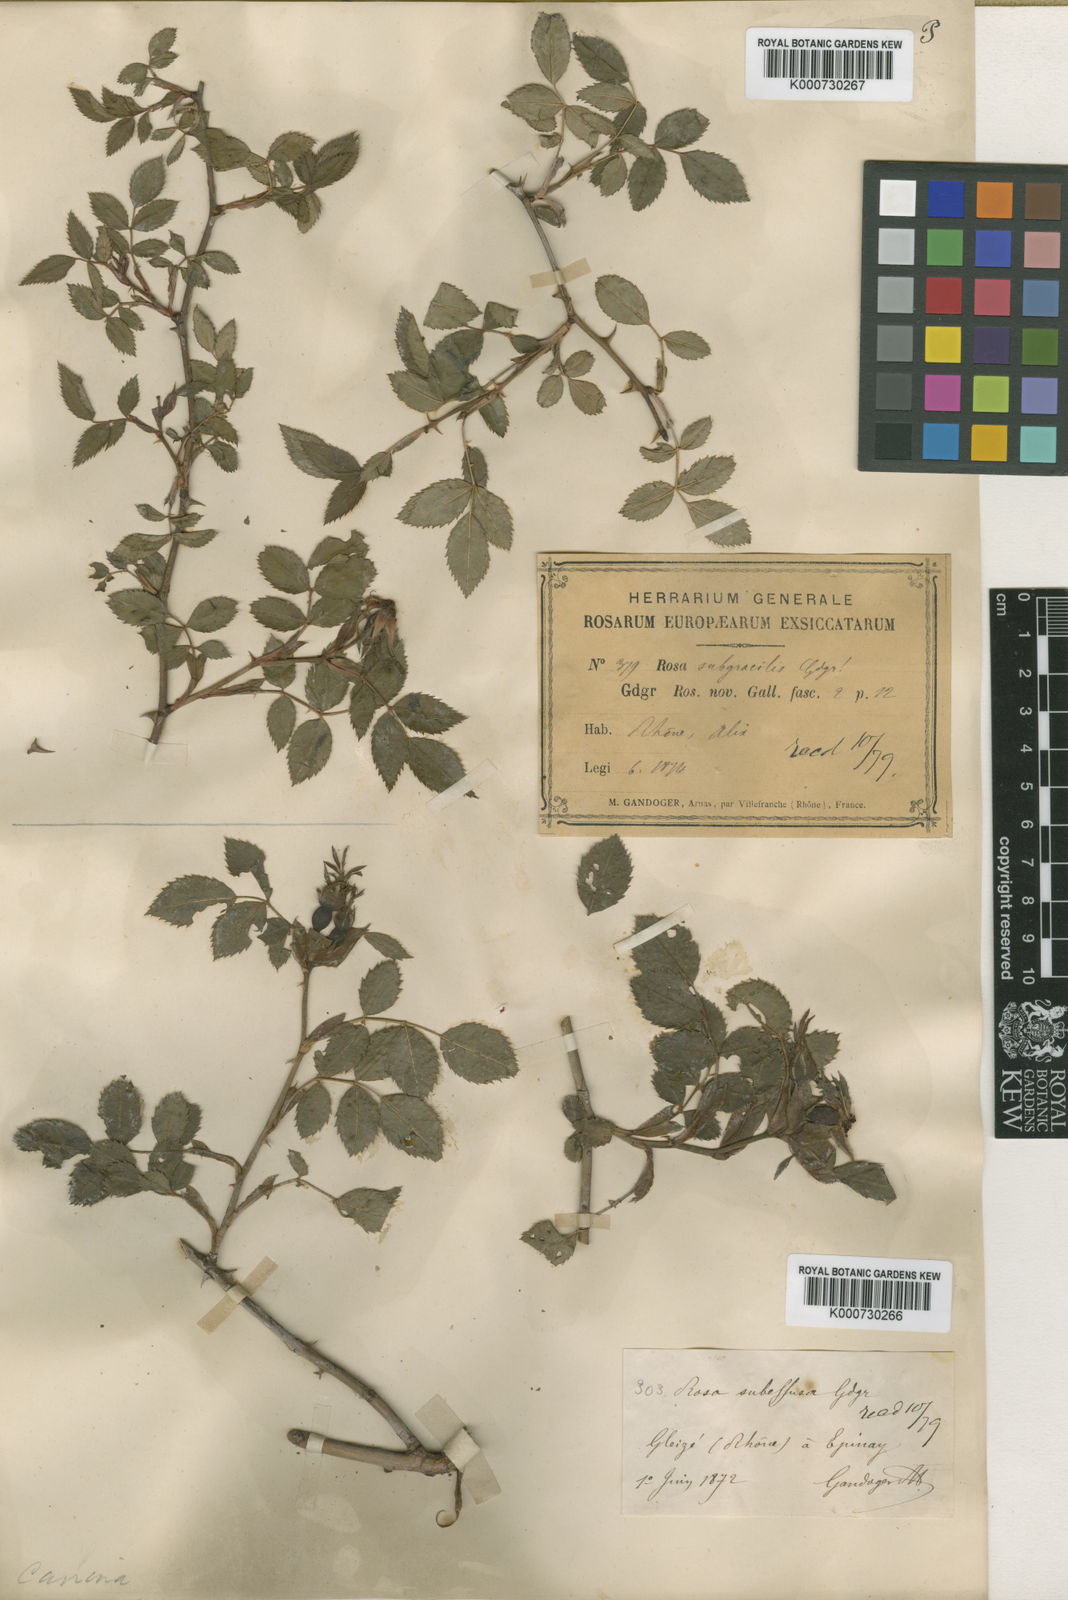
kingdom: Plantae
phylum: Tracheophyta
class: Magnoliopsida
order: Rosales
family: Rosaceae
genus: Rosa
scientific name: Rosa canina
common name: Dog rose
